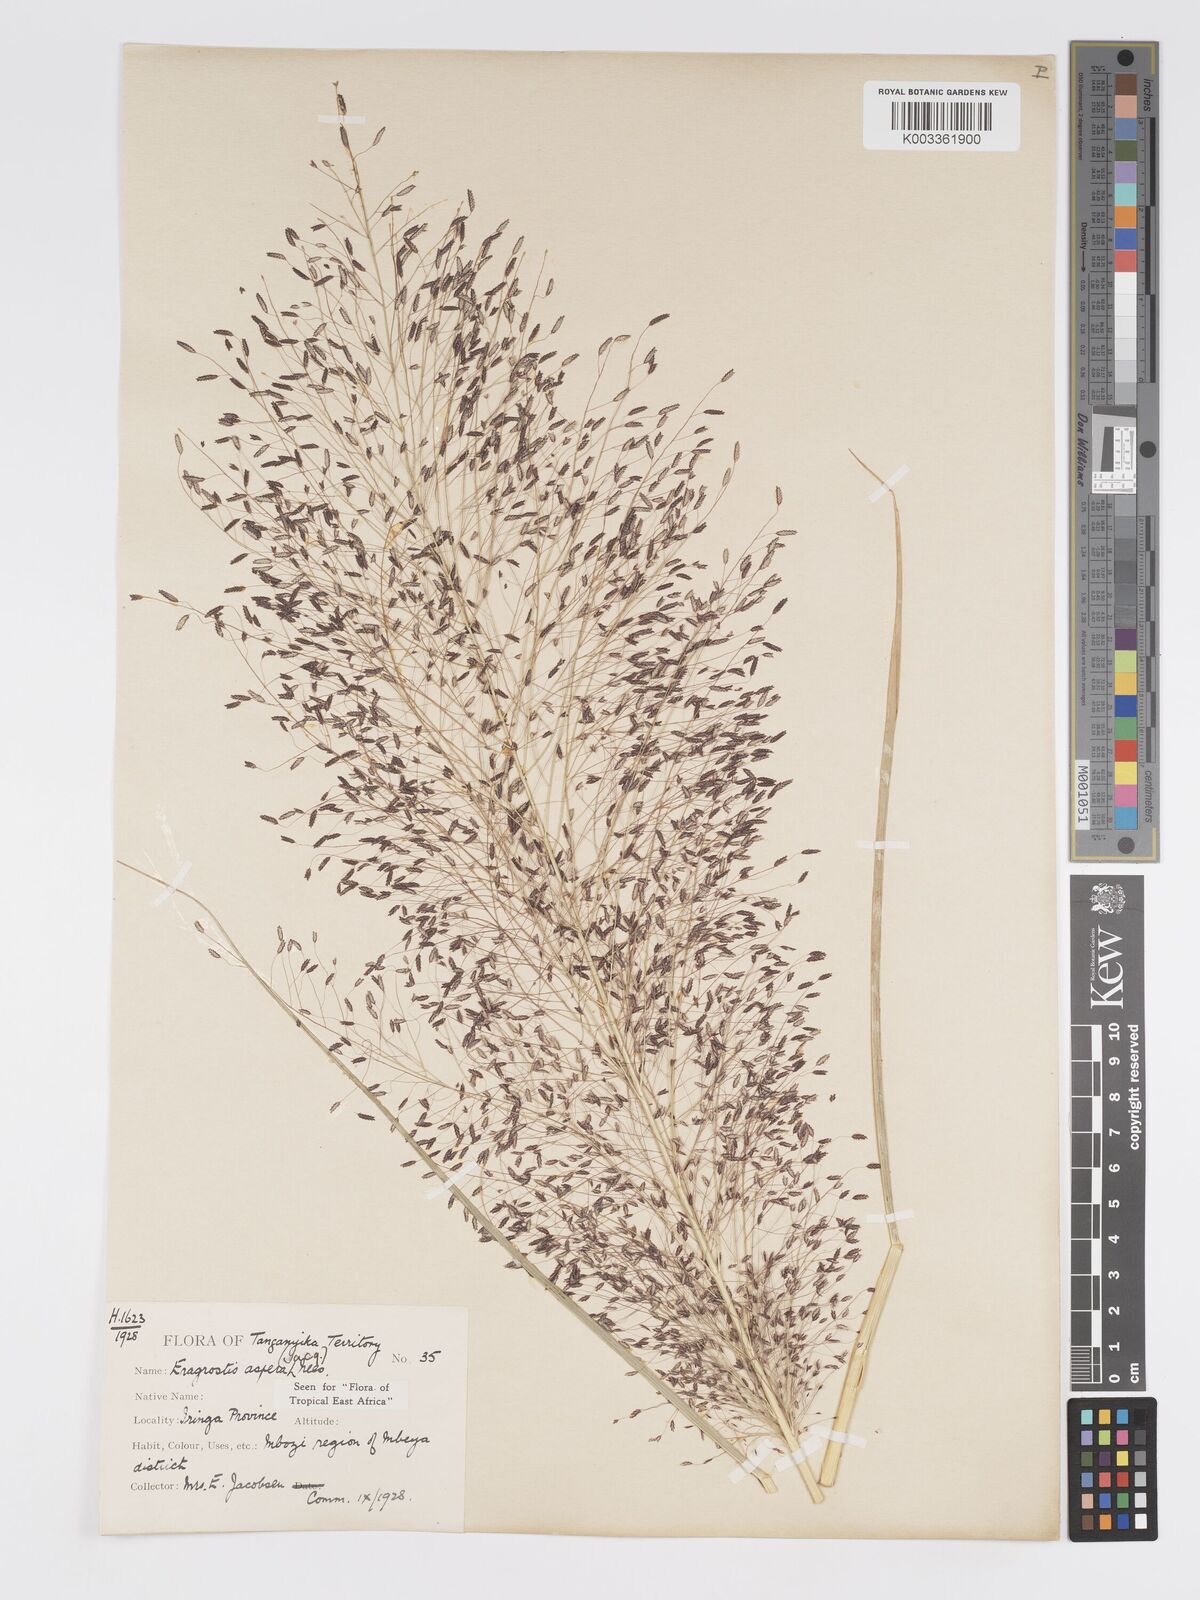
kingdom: Plantae
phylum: Tracheophyta
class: Liliopsida
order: Poales
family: Poaceae
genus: Eragrostis
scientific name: Eragrostis aspera
